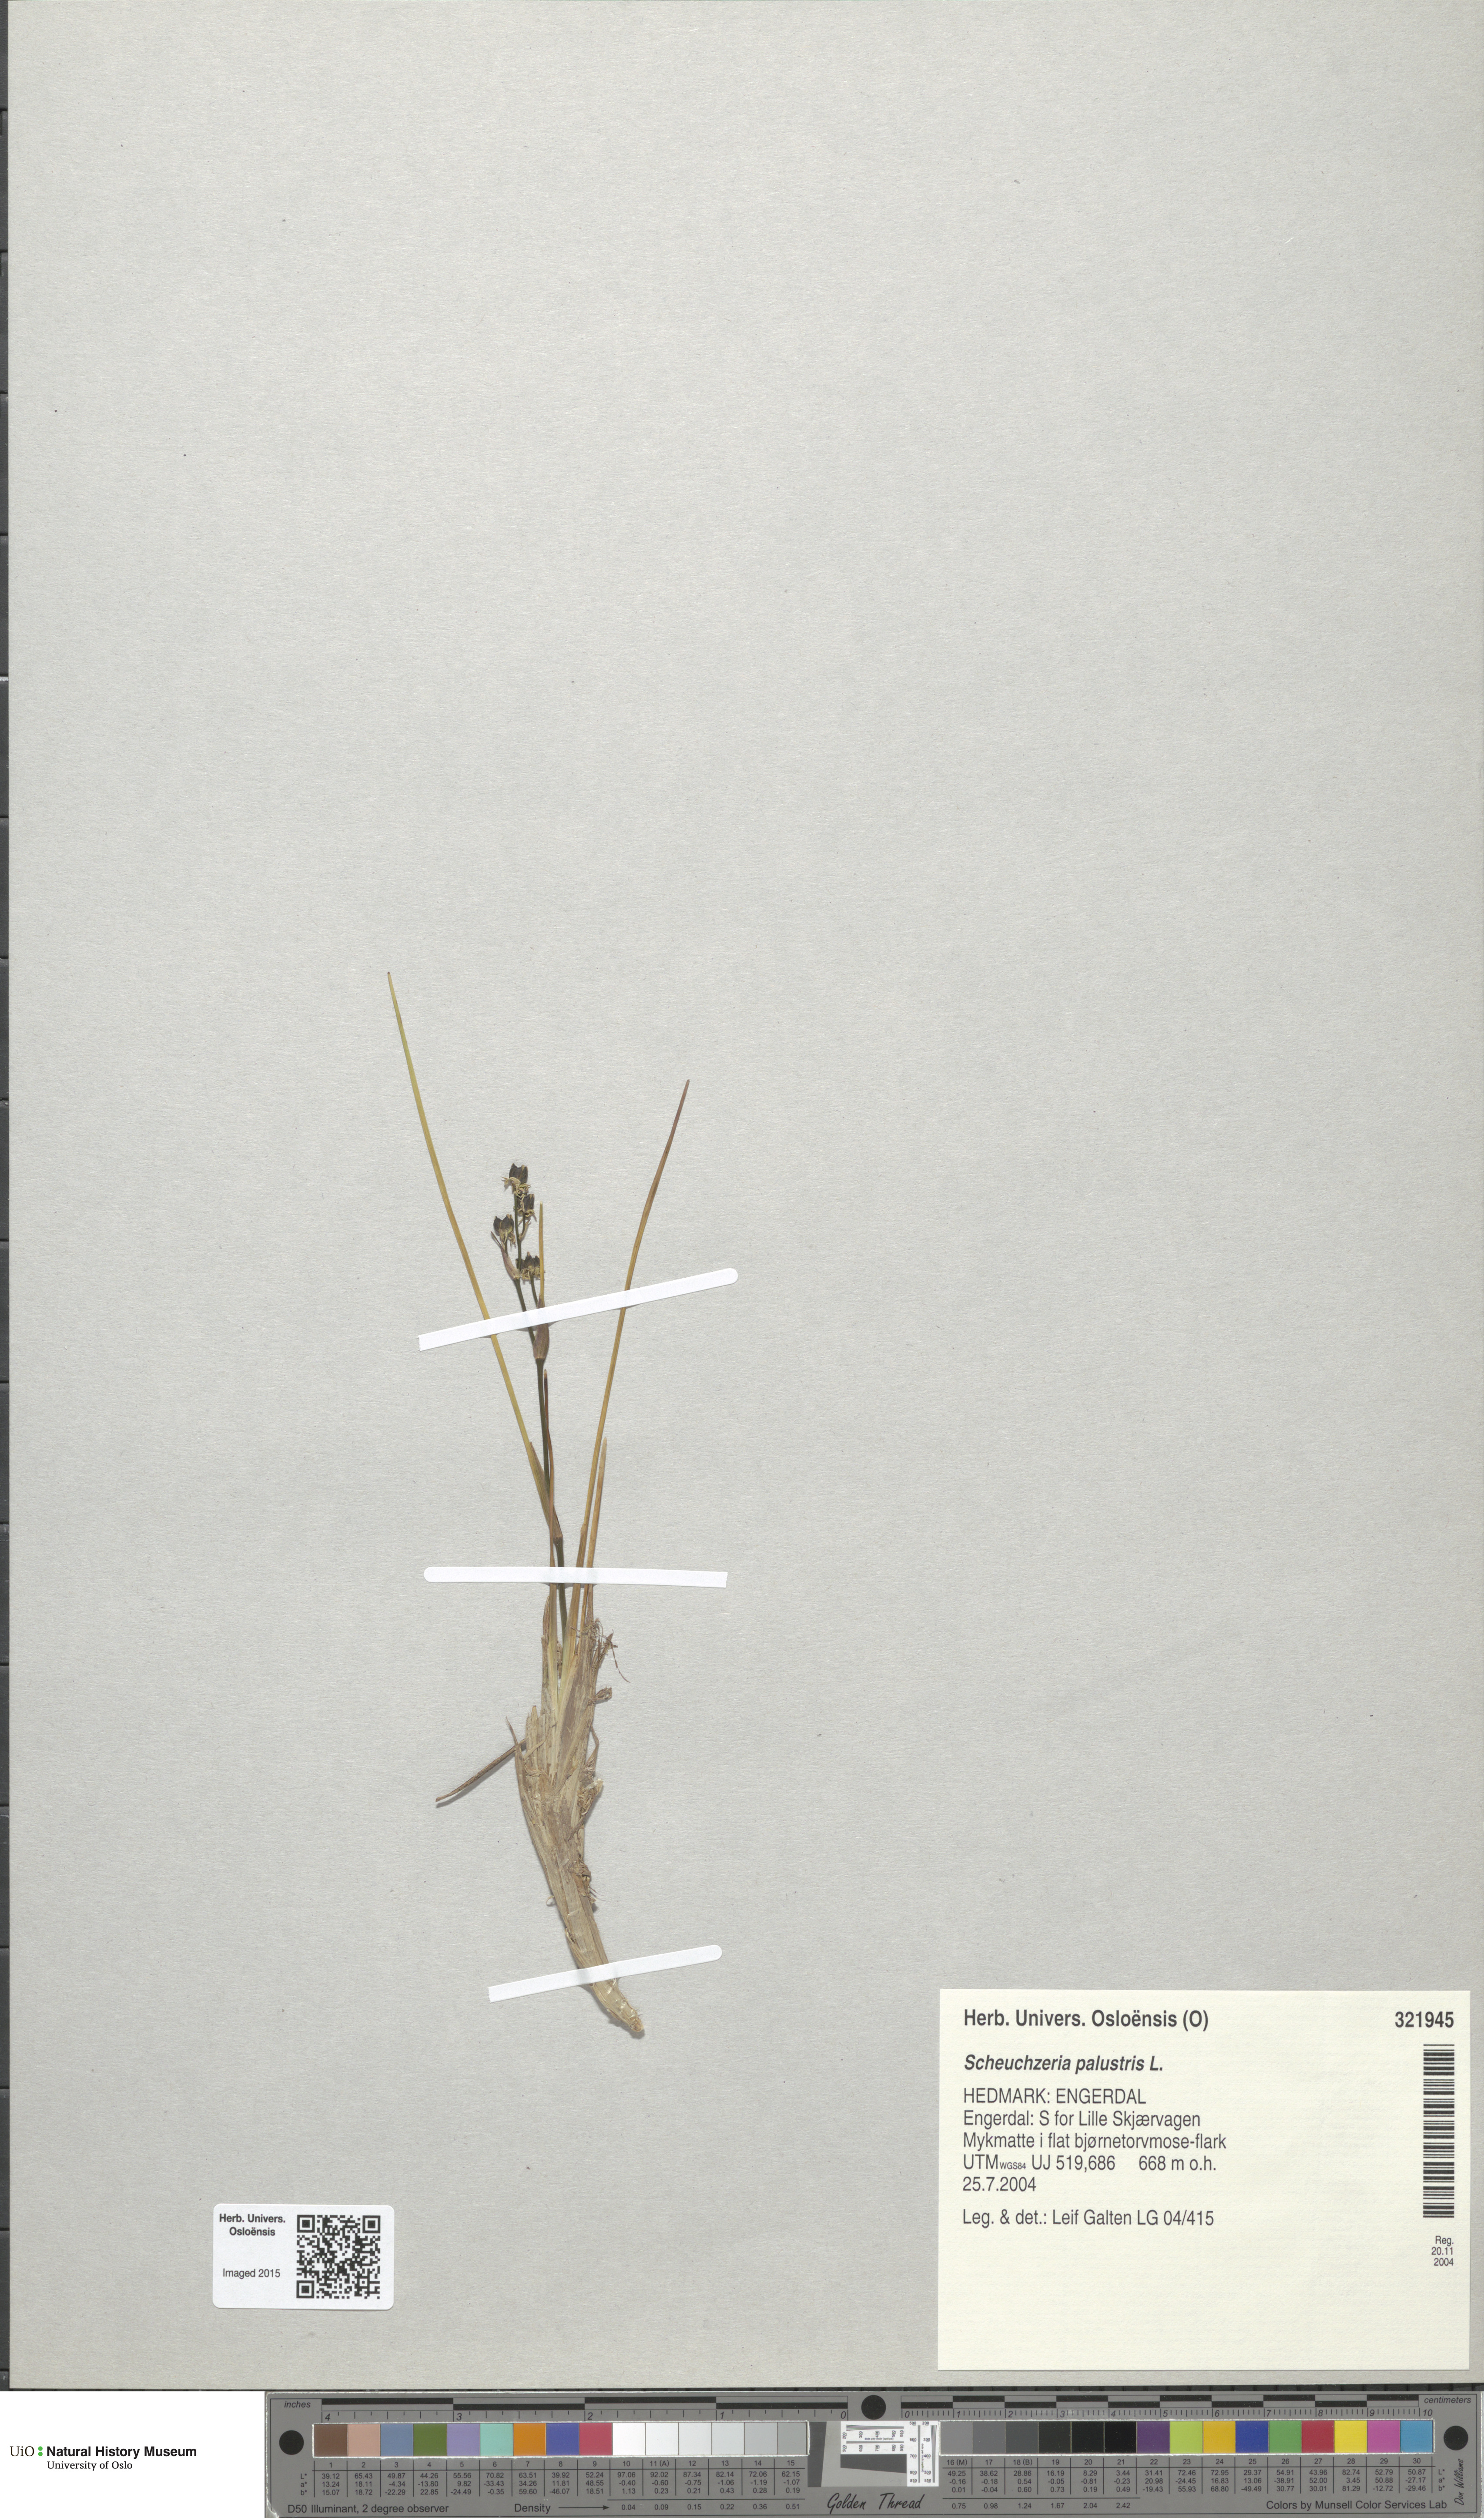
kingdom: Plantae
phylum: Tracheophyta
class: Liliopsida
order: Alismatales
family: Scheuchzeriaceae
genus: Scheuchzeria
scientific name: Scheuchzeria palustris
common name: Rannoch-rush
